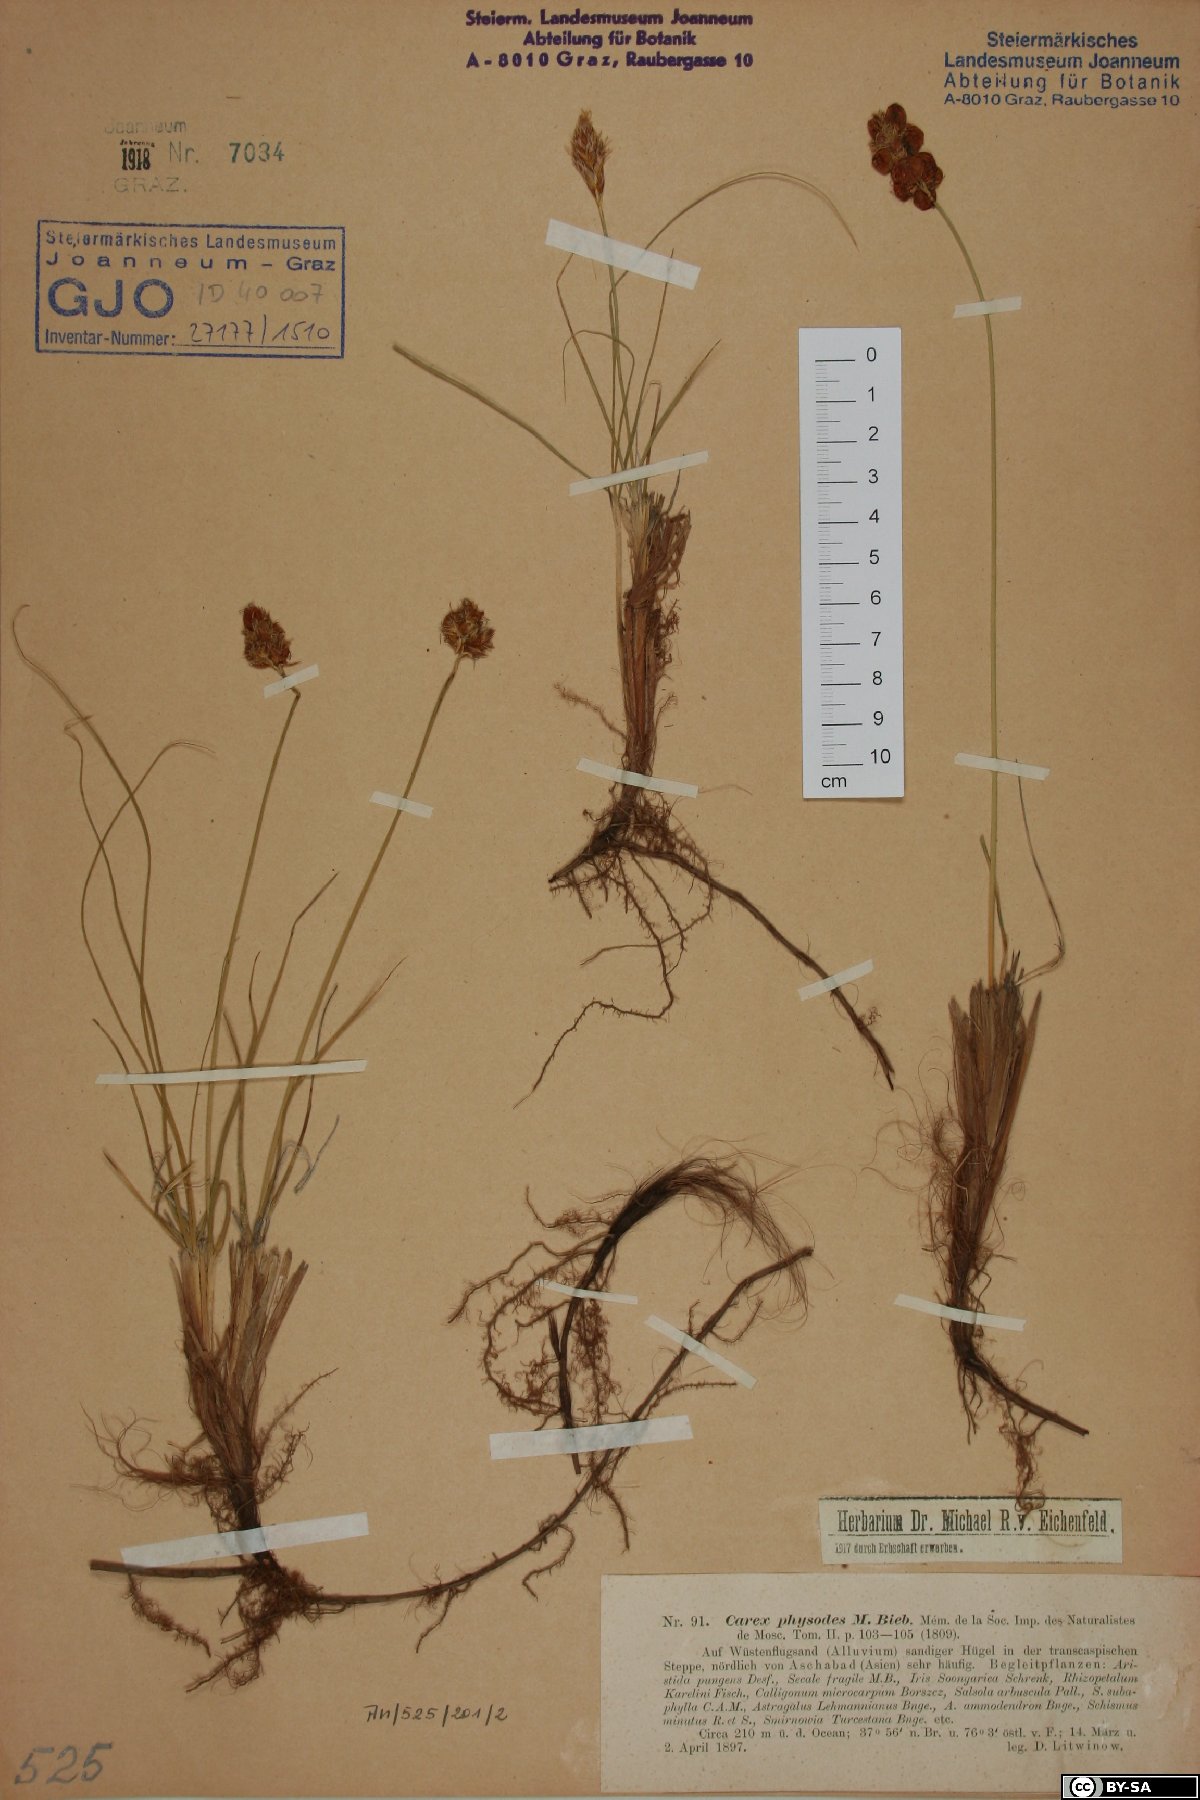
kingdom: Plantae
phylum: Tracheophyta
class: Liliopsida
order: Poales
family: Cyperaceae
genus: Carex
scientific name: Carex physodes
